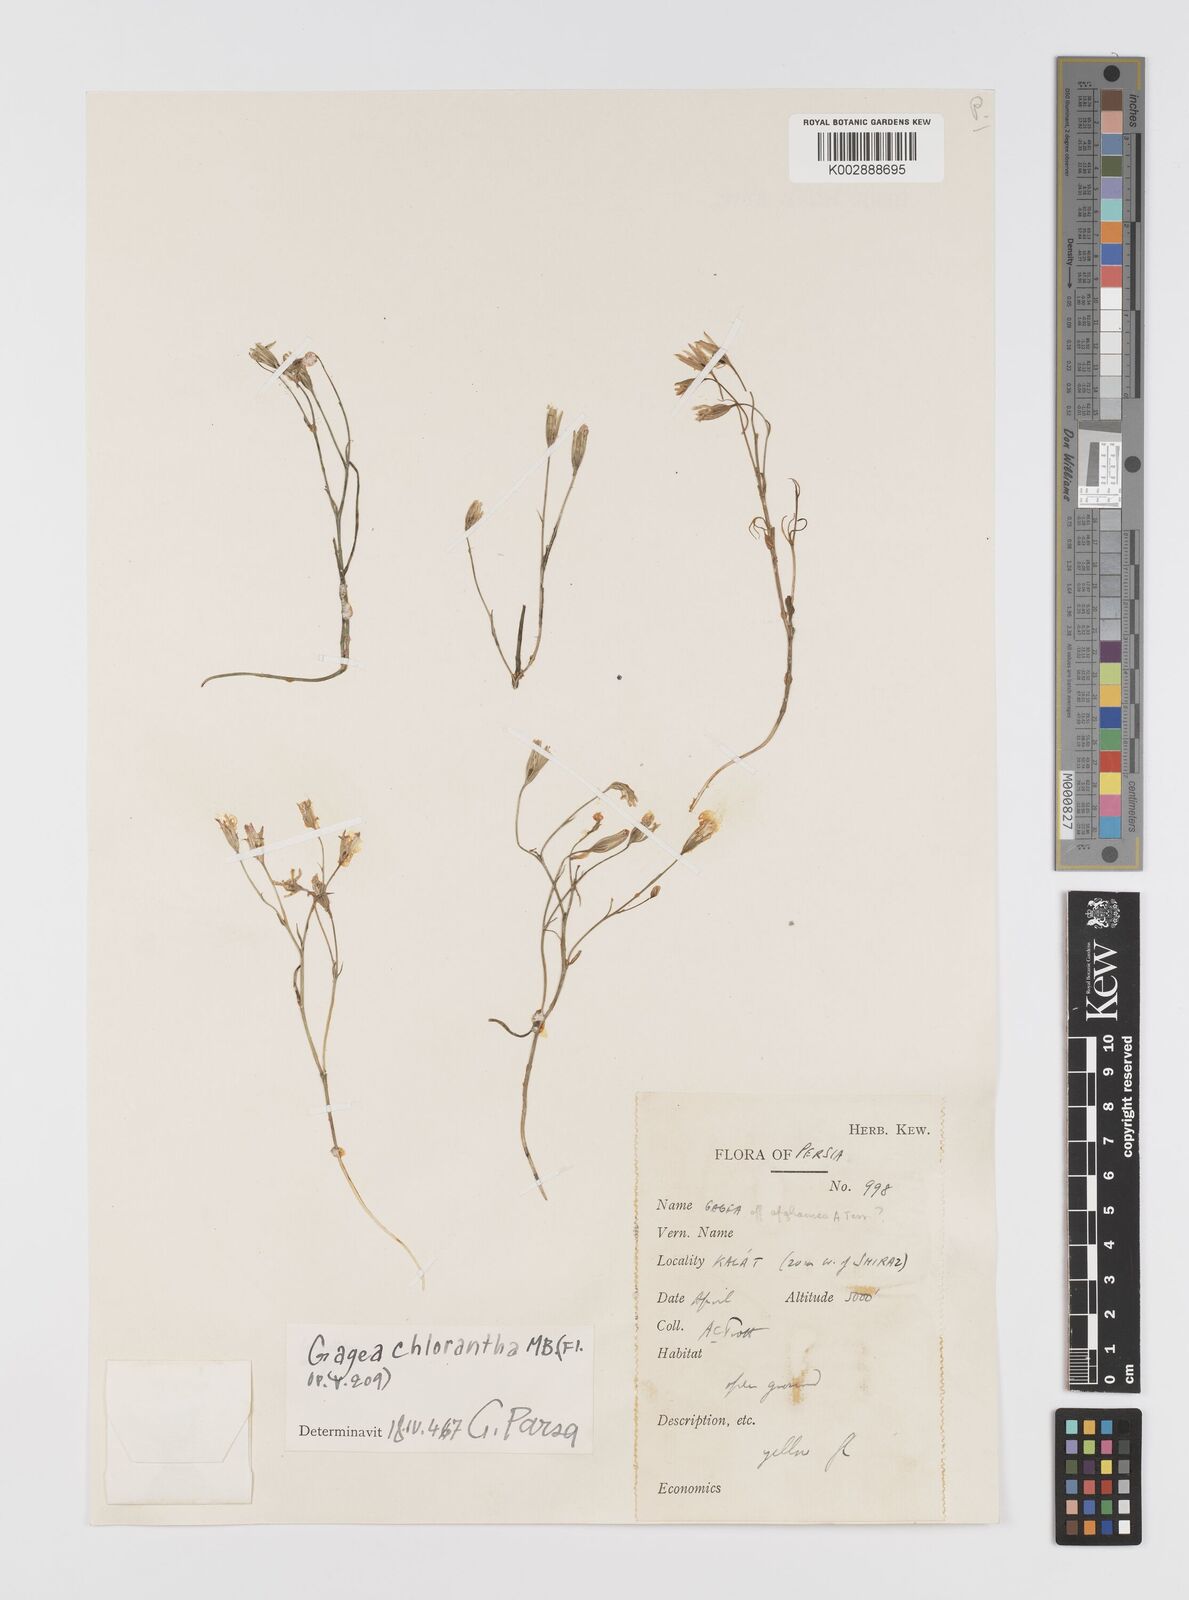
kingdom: Plantae
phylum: Tracheophyta
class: Liliopsida
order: Liliales
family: Liliaceae
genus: Gagea
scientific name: Gagea kunawurensis
